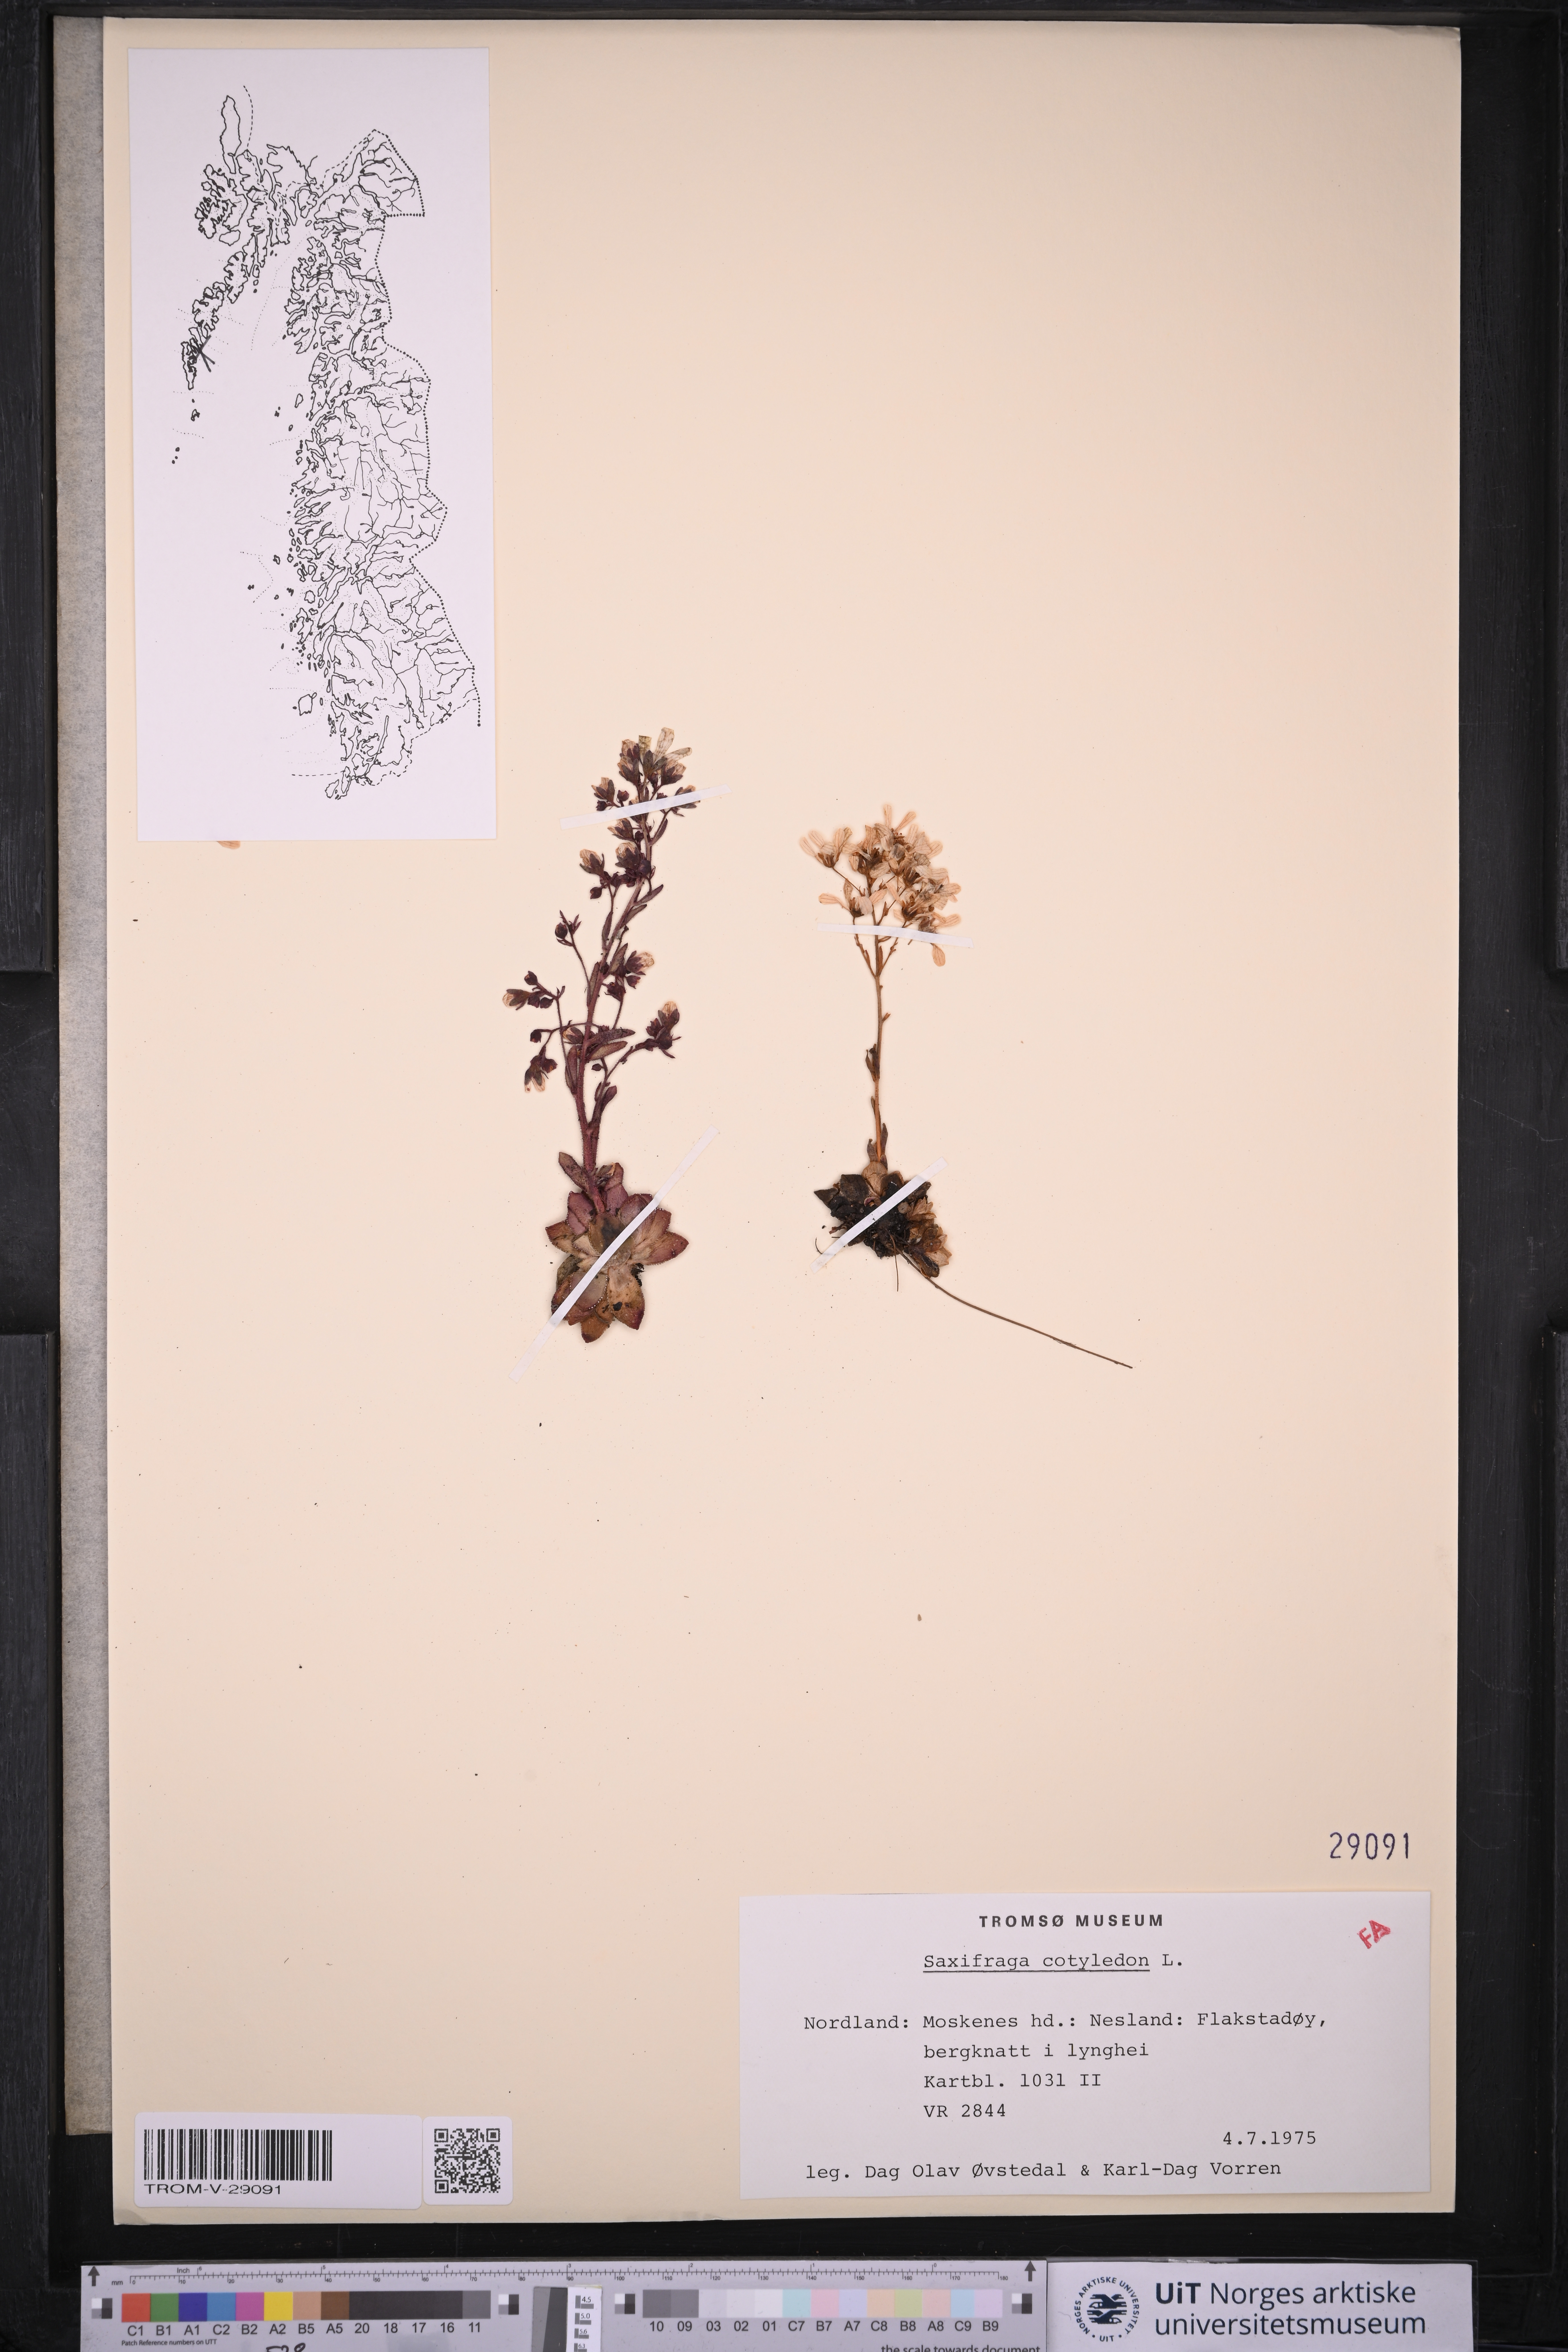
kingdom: Plantae
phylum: Tracheophyta
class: Magnoliopsida
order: Saxifragales
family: Saxifragaceae
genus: Saxifraga
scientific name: Saxifraga cotyledon
